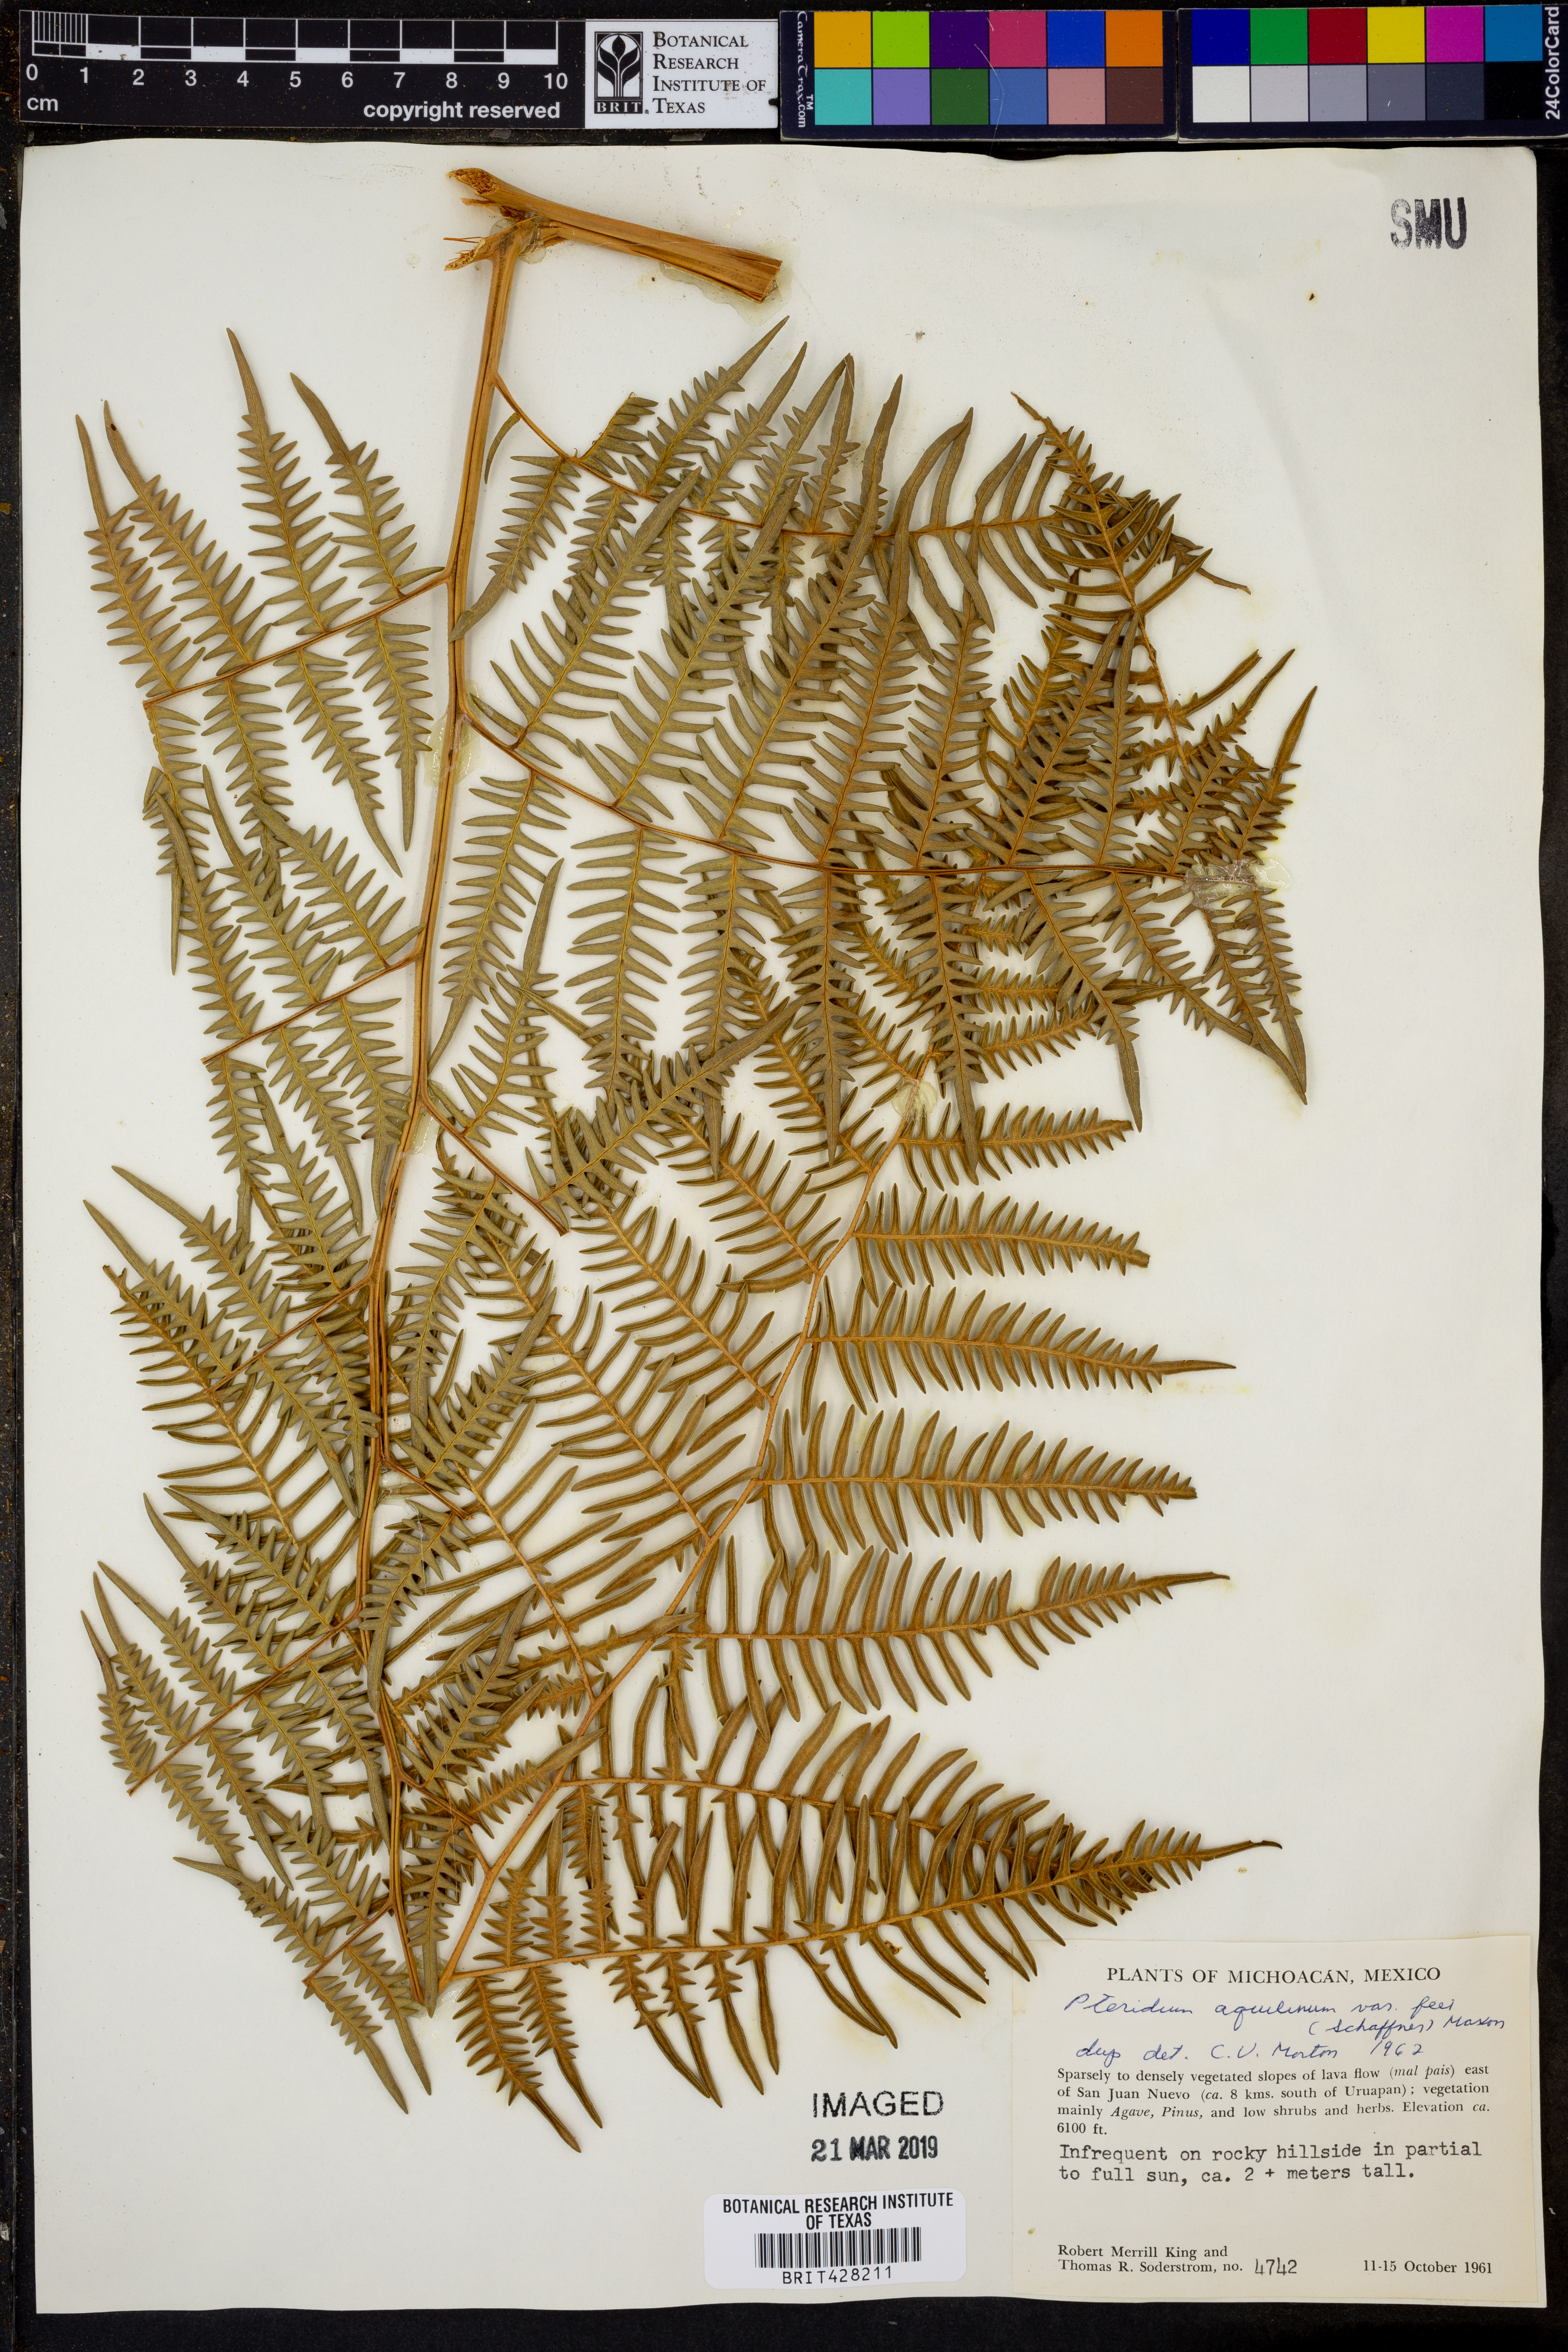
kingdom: Plantae
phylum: Tracheophyta
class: Polypodiopsida
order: Polypodiales
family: Dennstaedtiaceae
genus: Pteridium
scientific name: Pteridium aquilinum
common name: Bracken
